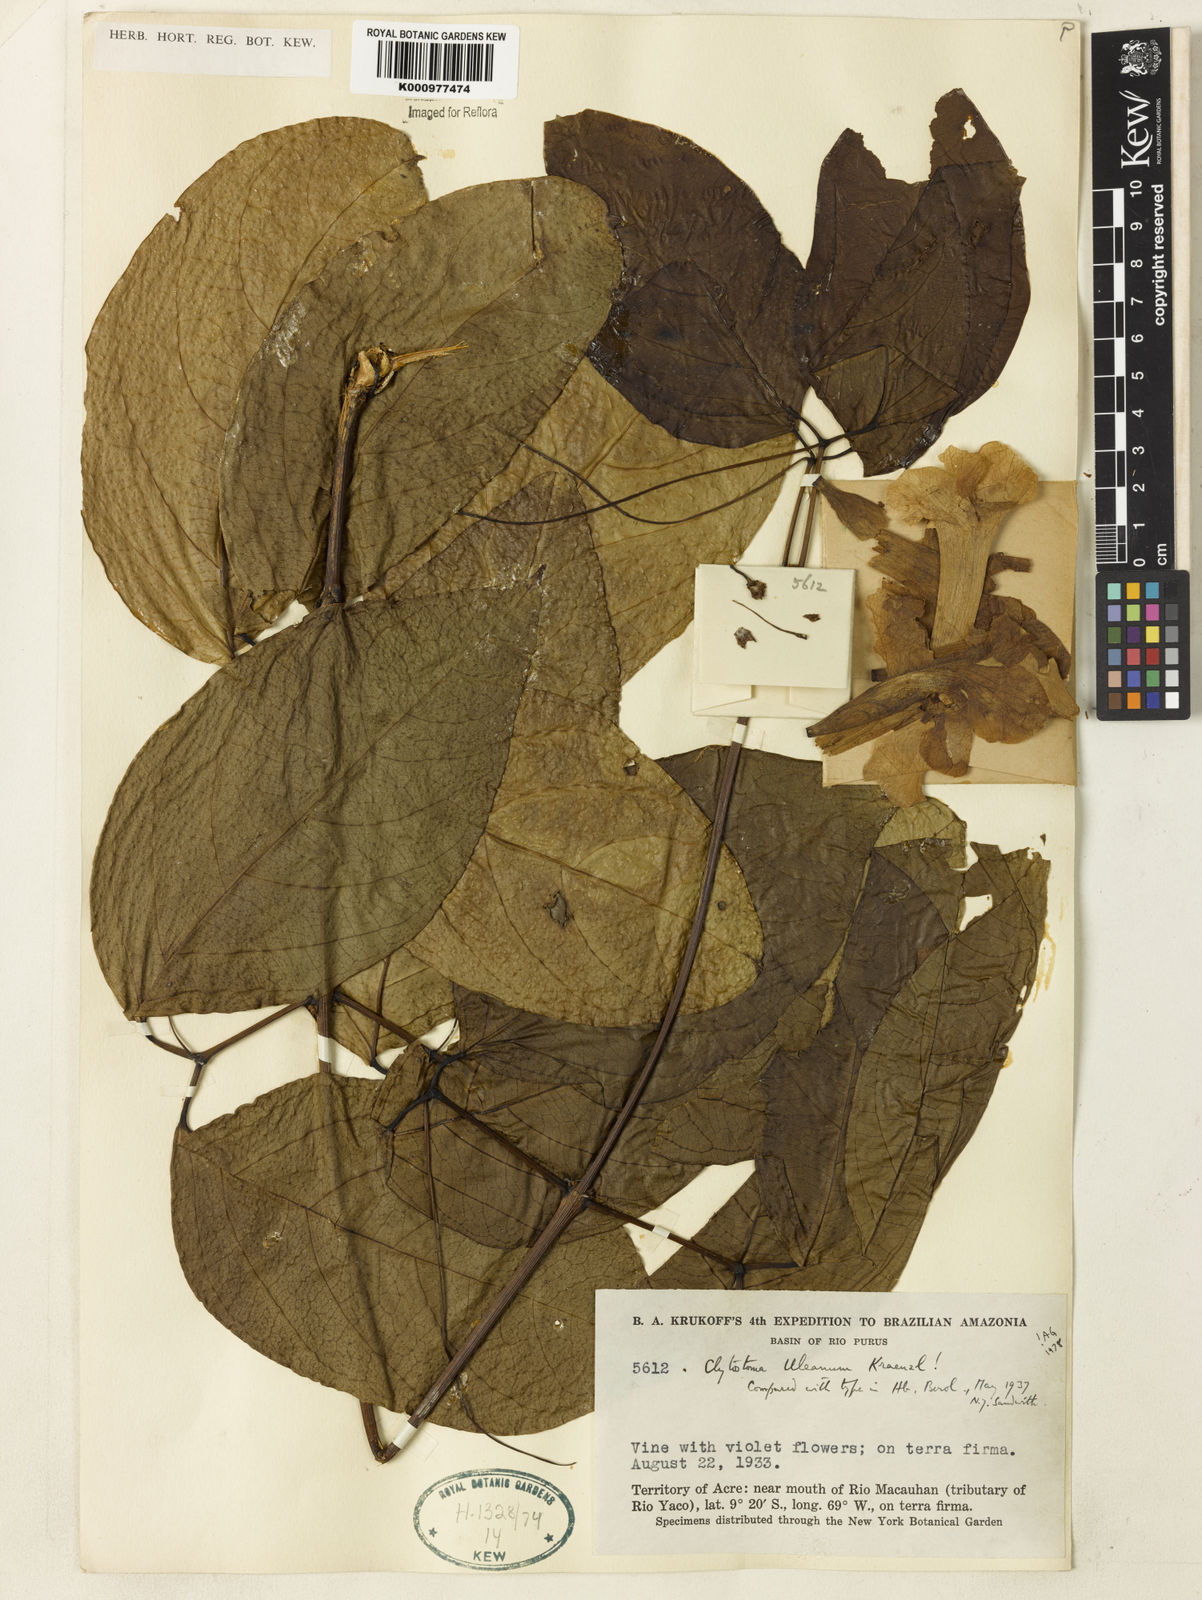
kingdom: Plantae
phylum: Tracheophyta
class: Magnoliopsida
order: Lamiales
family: Bignoniaceae
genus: Bignonia
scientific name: Bignonia uleana
